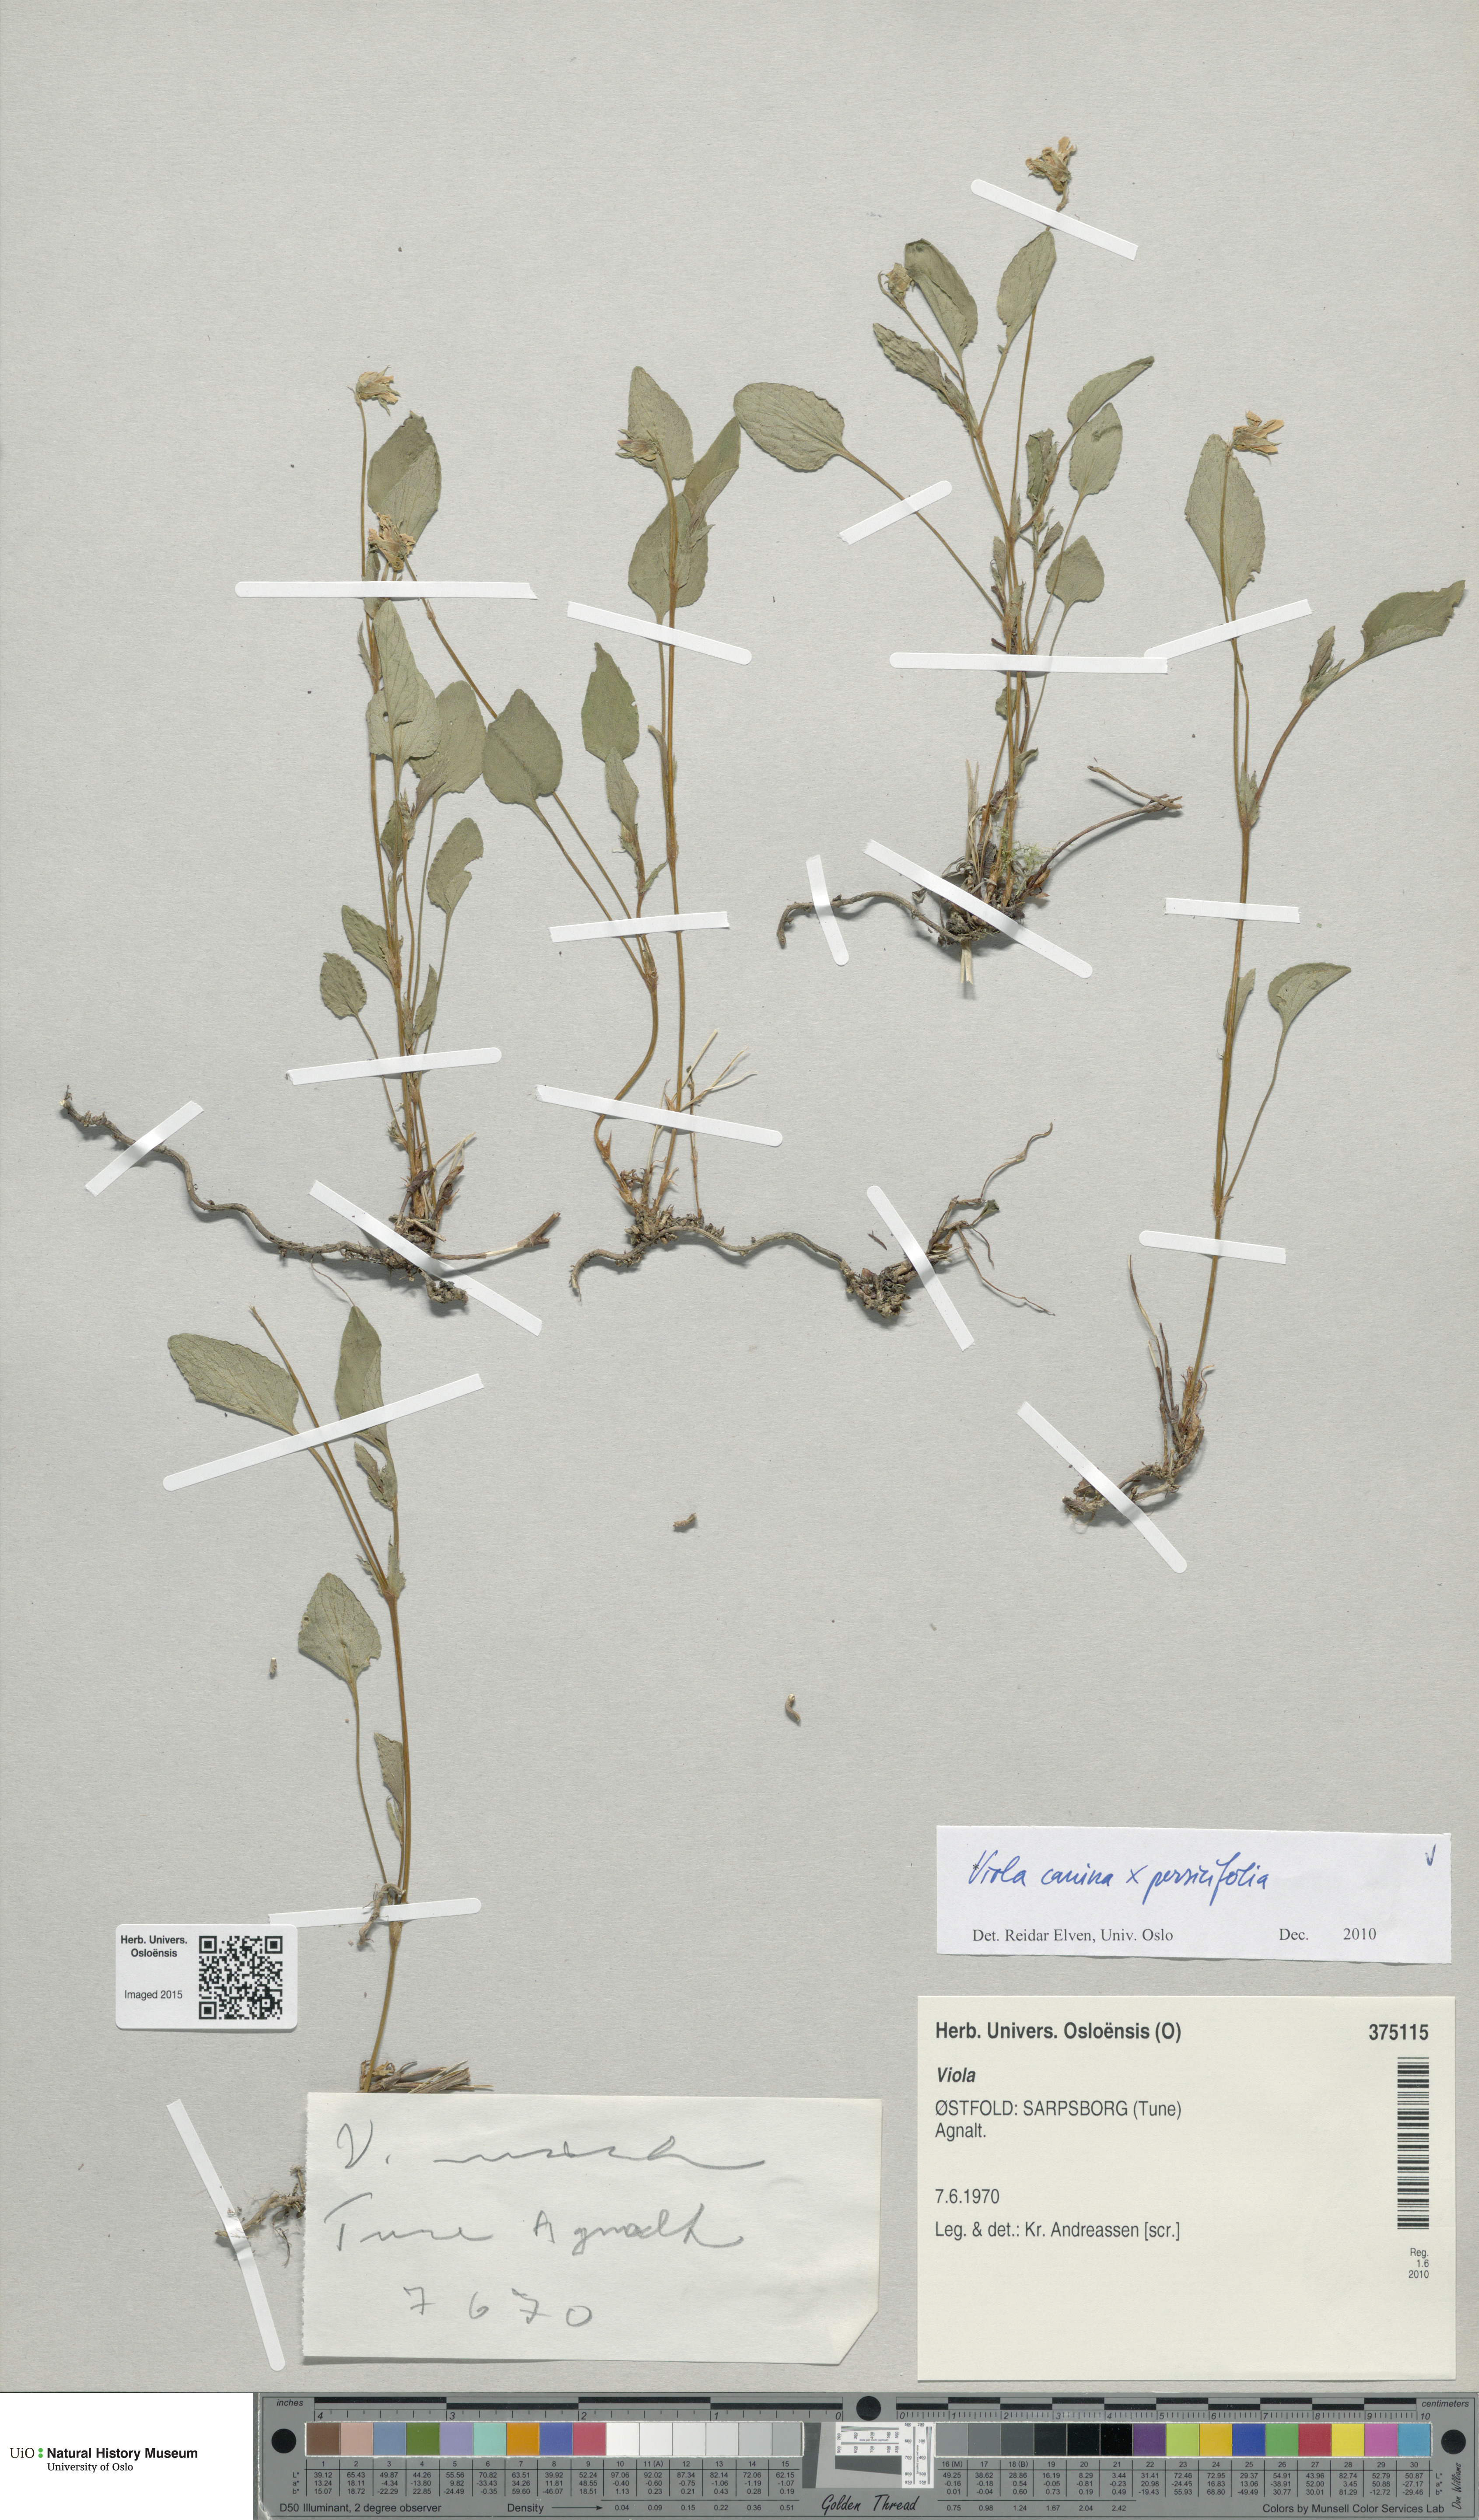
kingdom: Plantae
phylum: Tracheophyta
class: Magnoliopsida
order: Malpighiales
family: Violaceae
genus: Viola
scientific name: Viola
